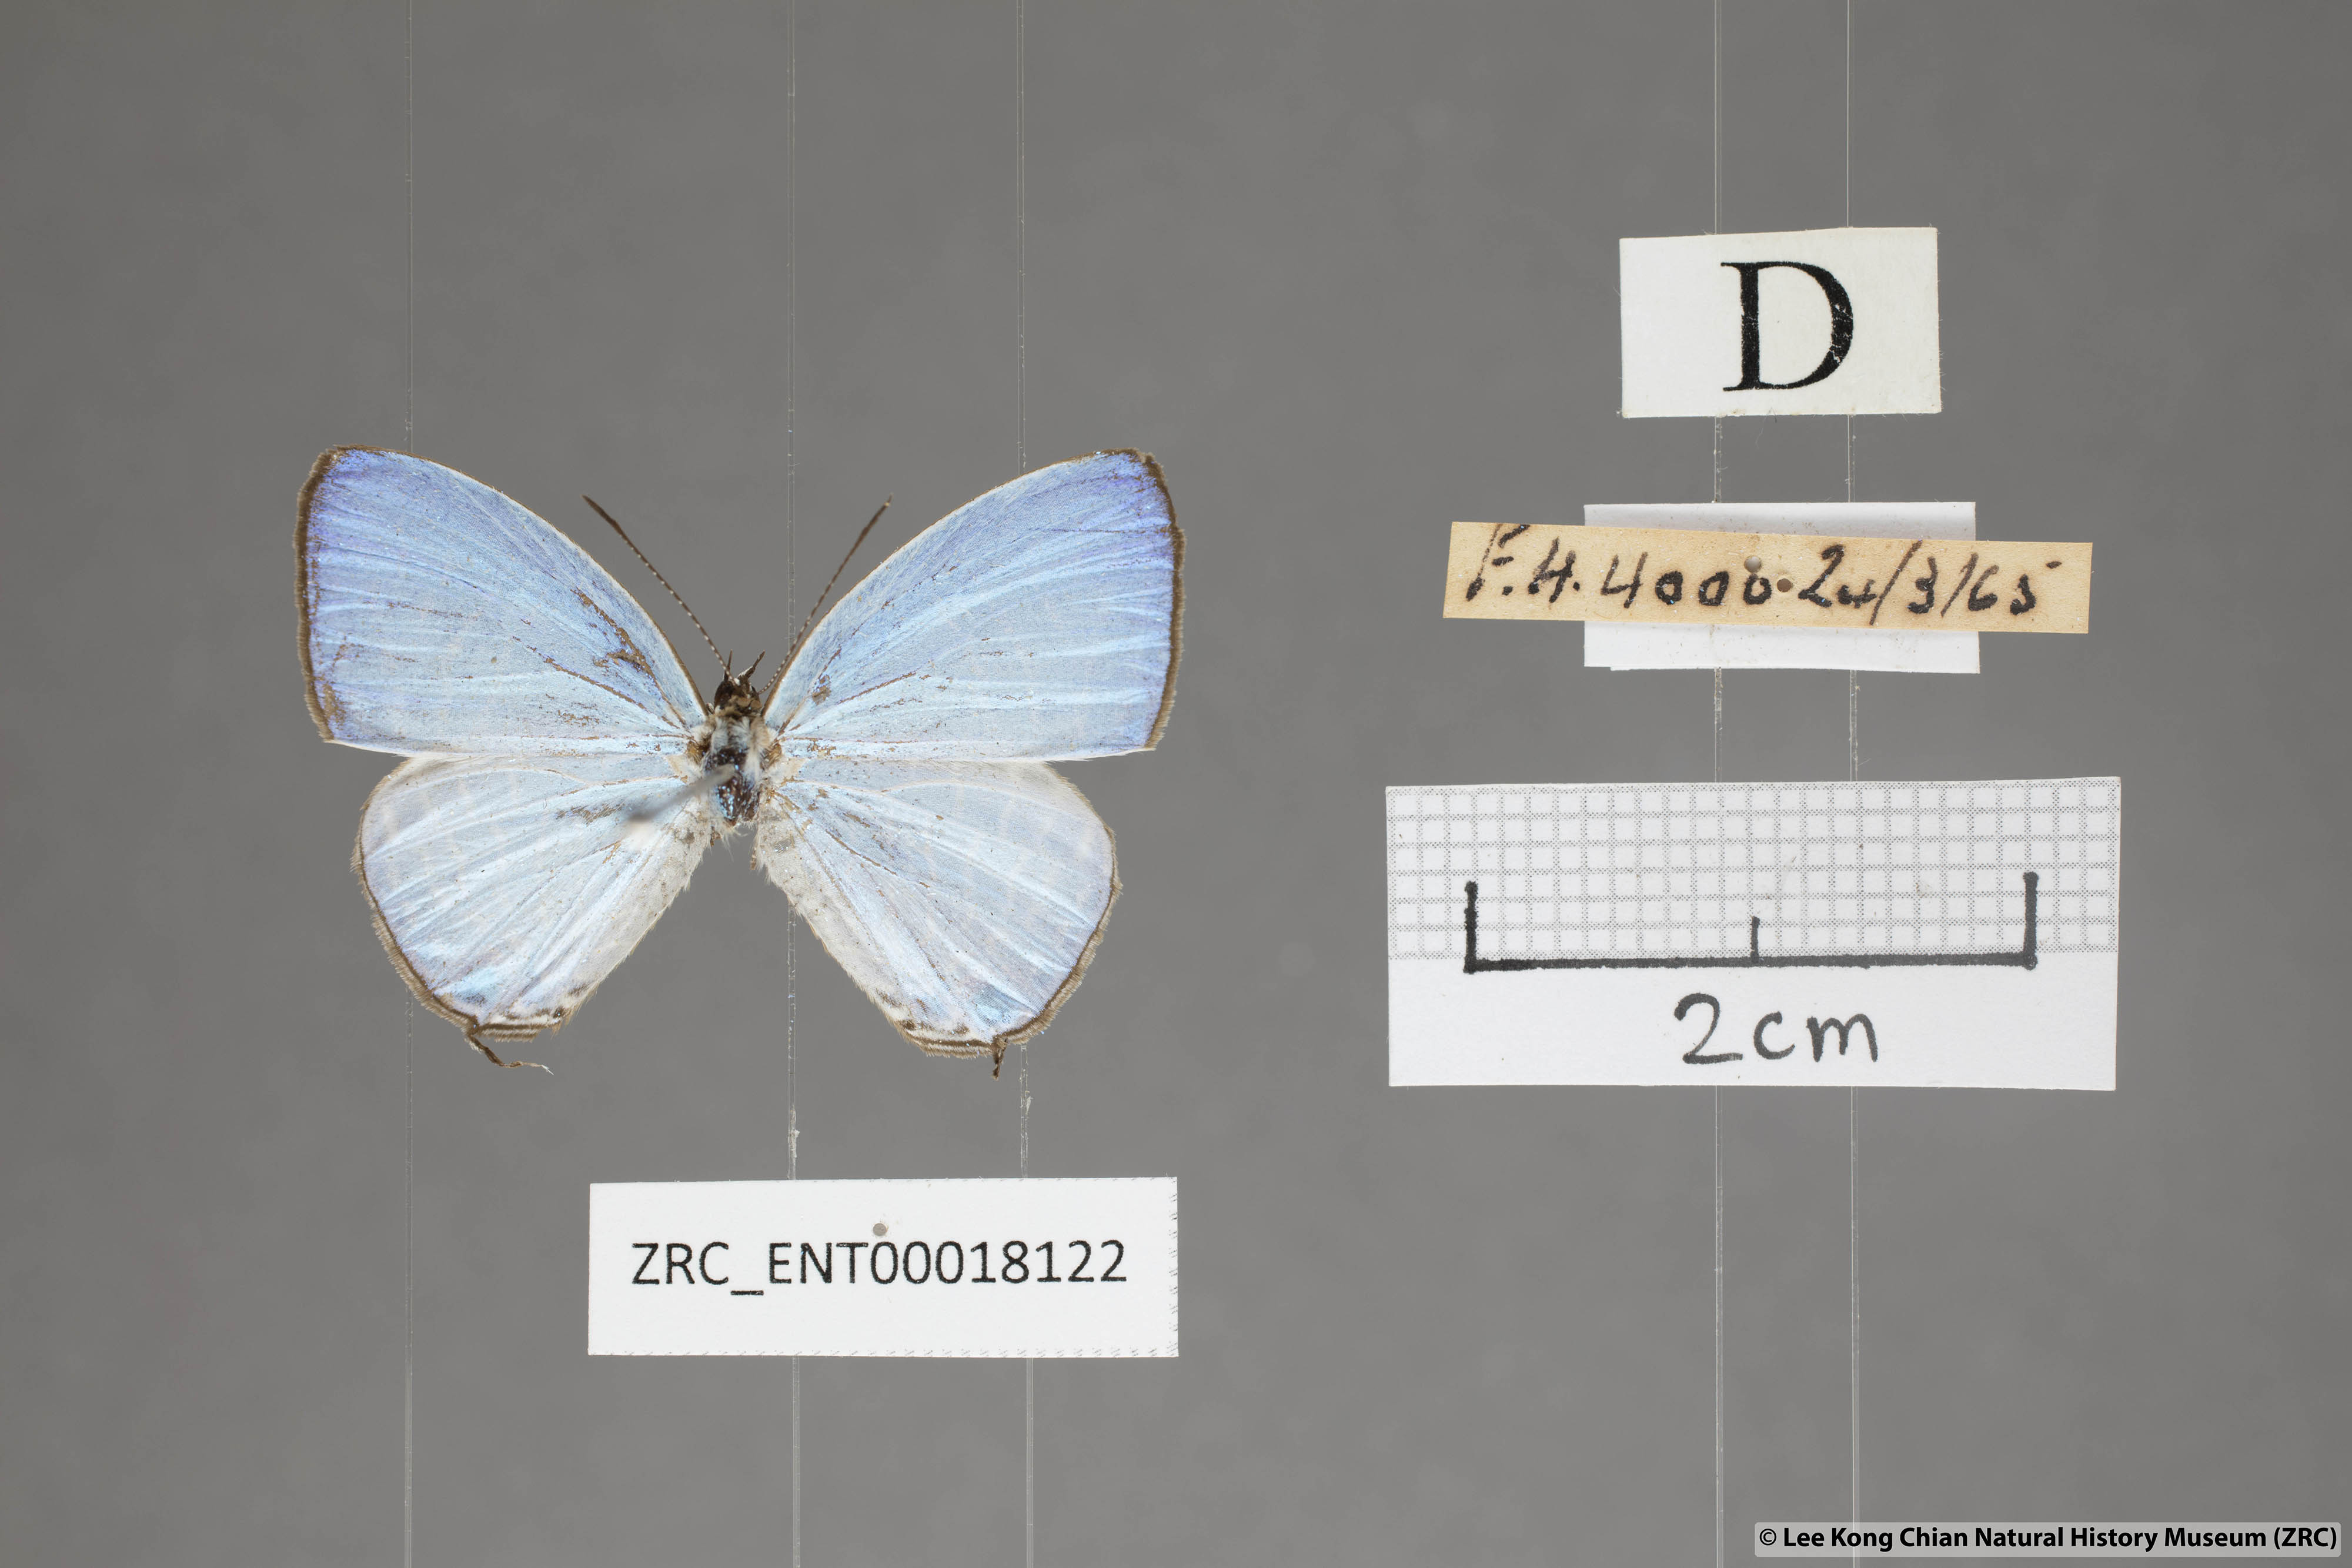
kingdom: Animalia
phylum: Arthropoda
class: Insecta
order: Lepidoptera
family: Lycaenidae
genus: Jamides
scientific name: Jamides elpis
